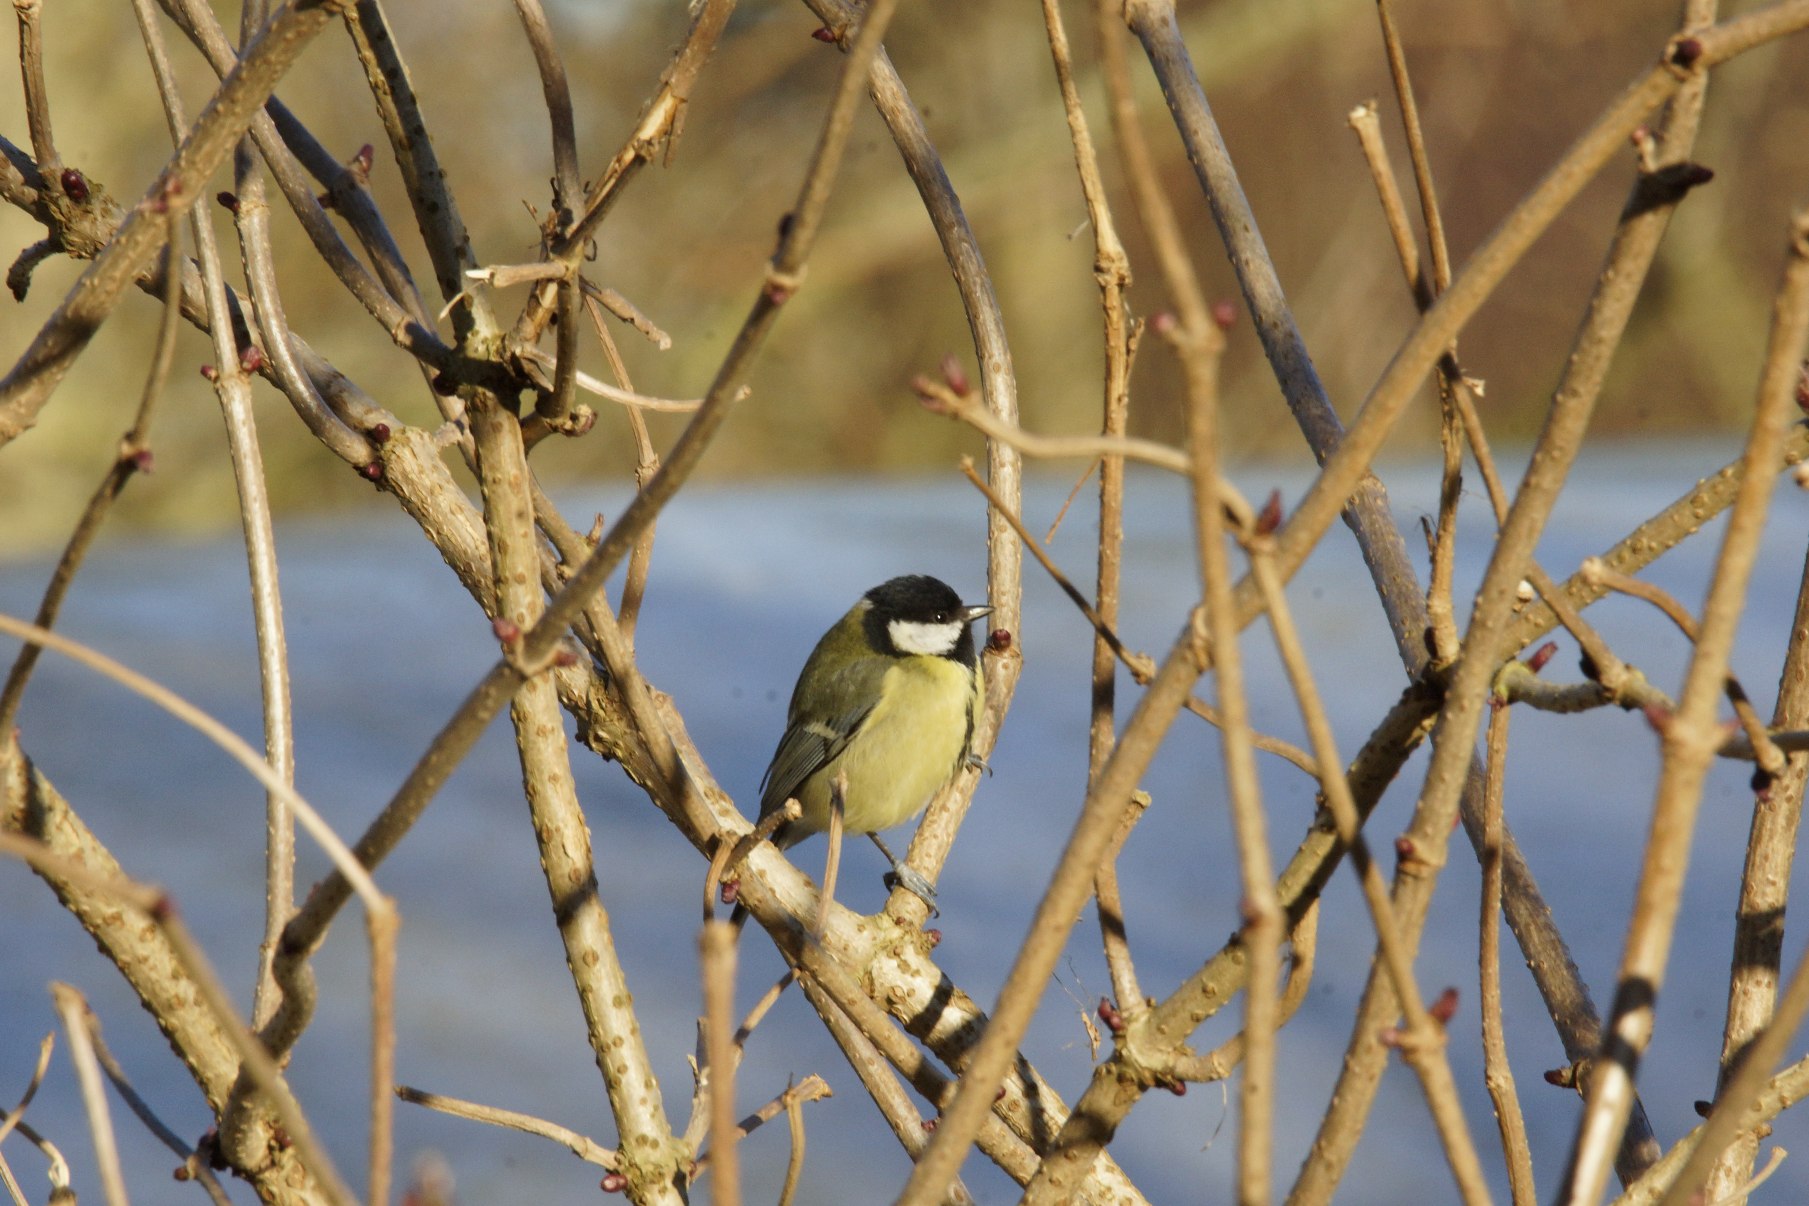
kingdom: Animalia
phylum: Chordata
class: Aves
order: Passeriformes
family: Paridae
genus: Parus
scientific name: Parus major
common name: Musvit
